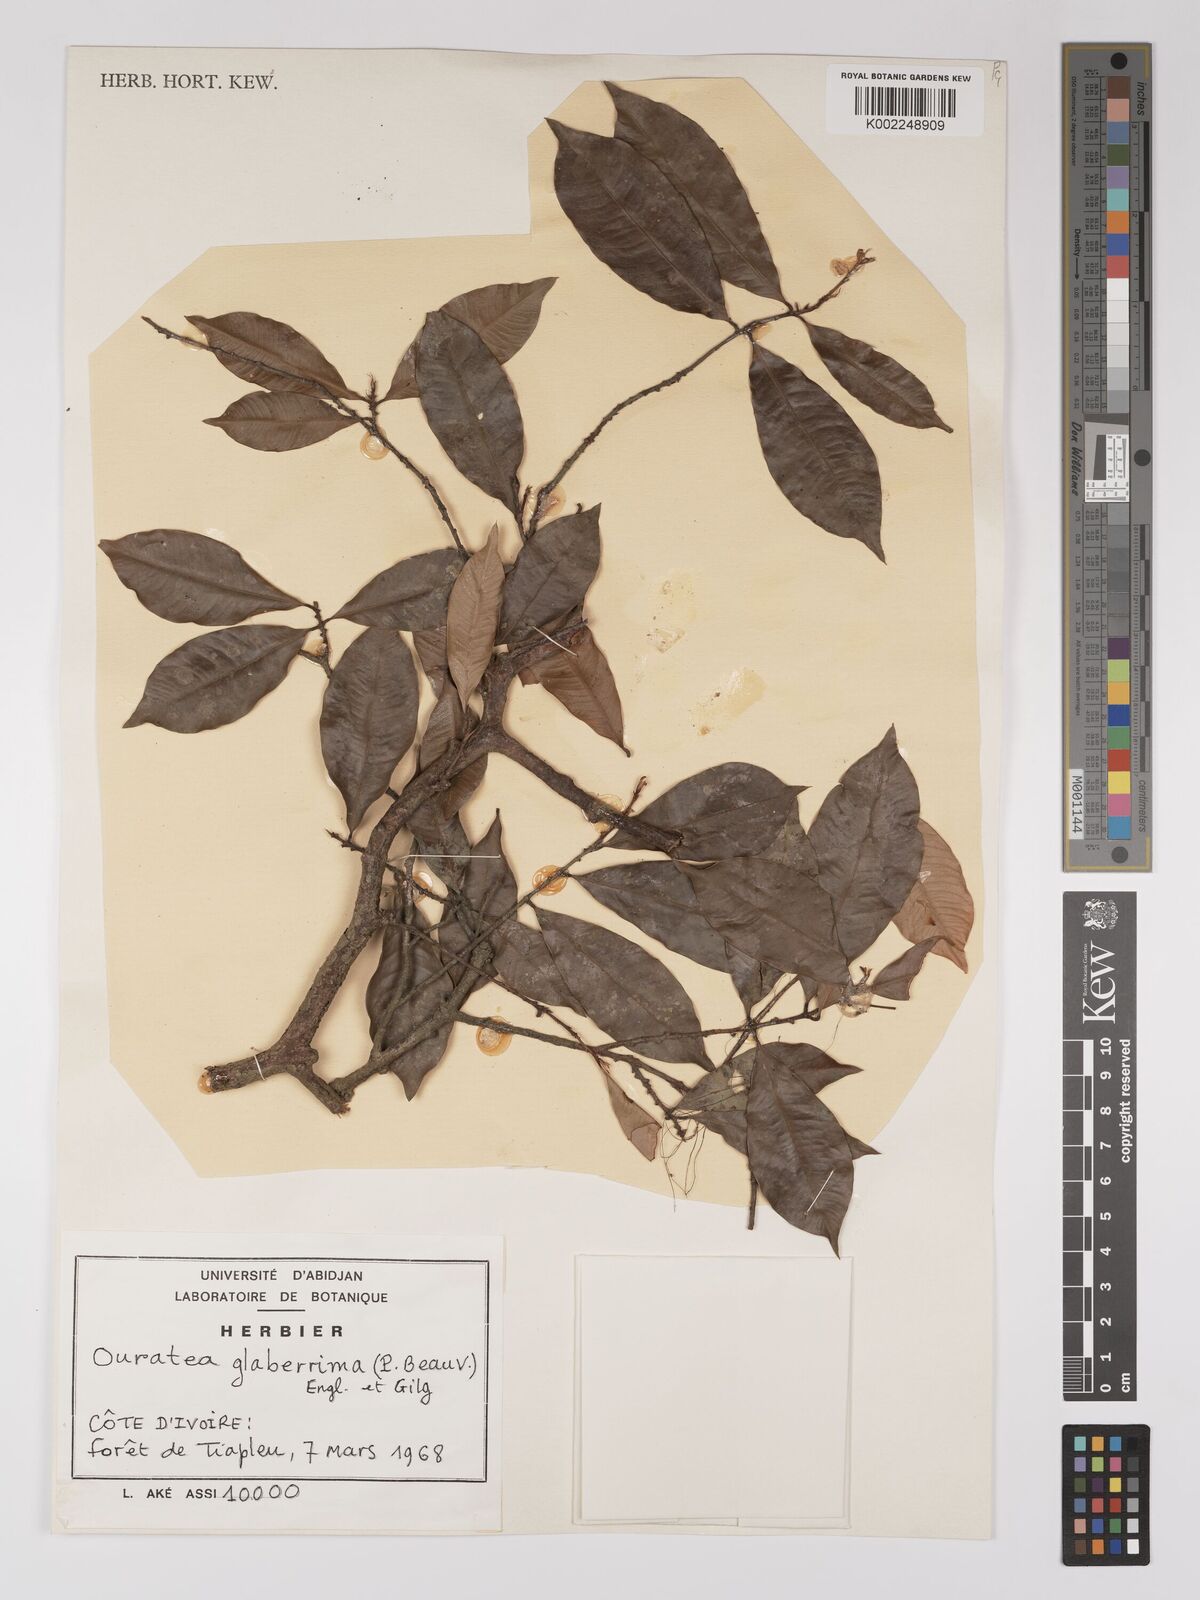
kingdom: Plantae
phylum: Tracheophyta
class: Magnoliopsida
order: Malpighiales
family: Ochnaceae
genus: Campylospermum
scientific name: Campylospermum glaberrimum
